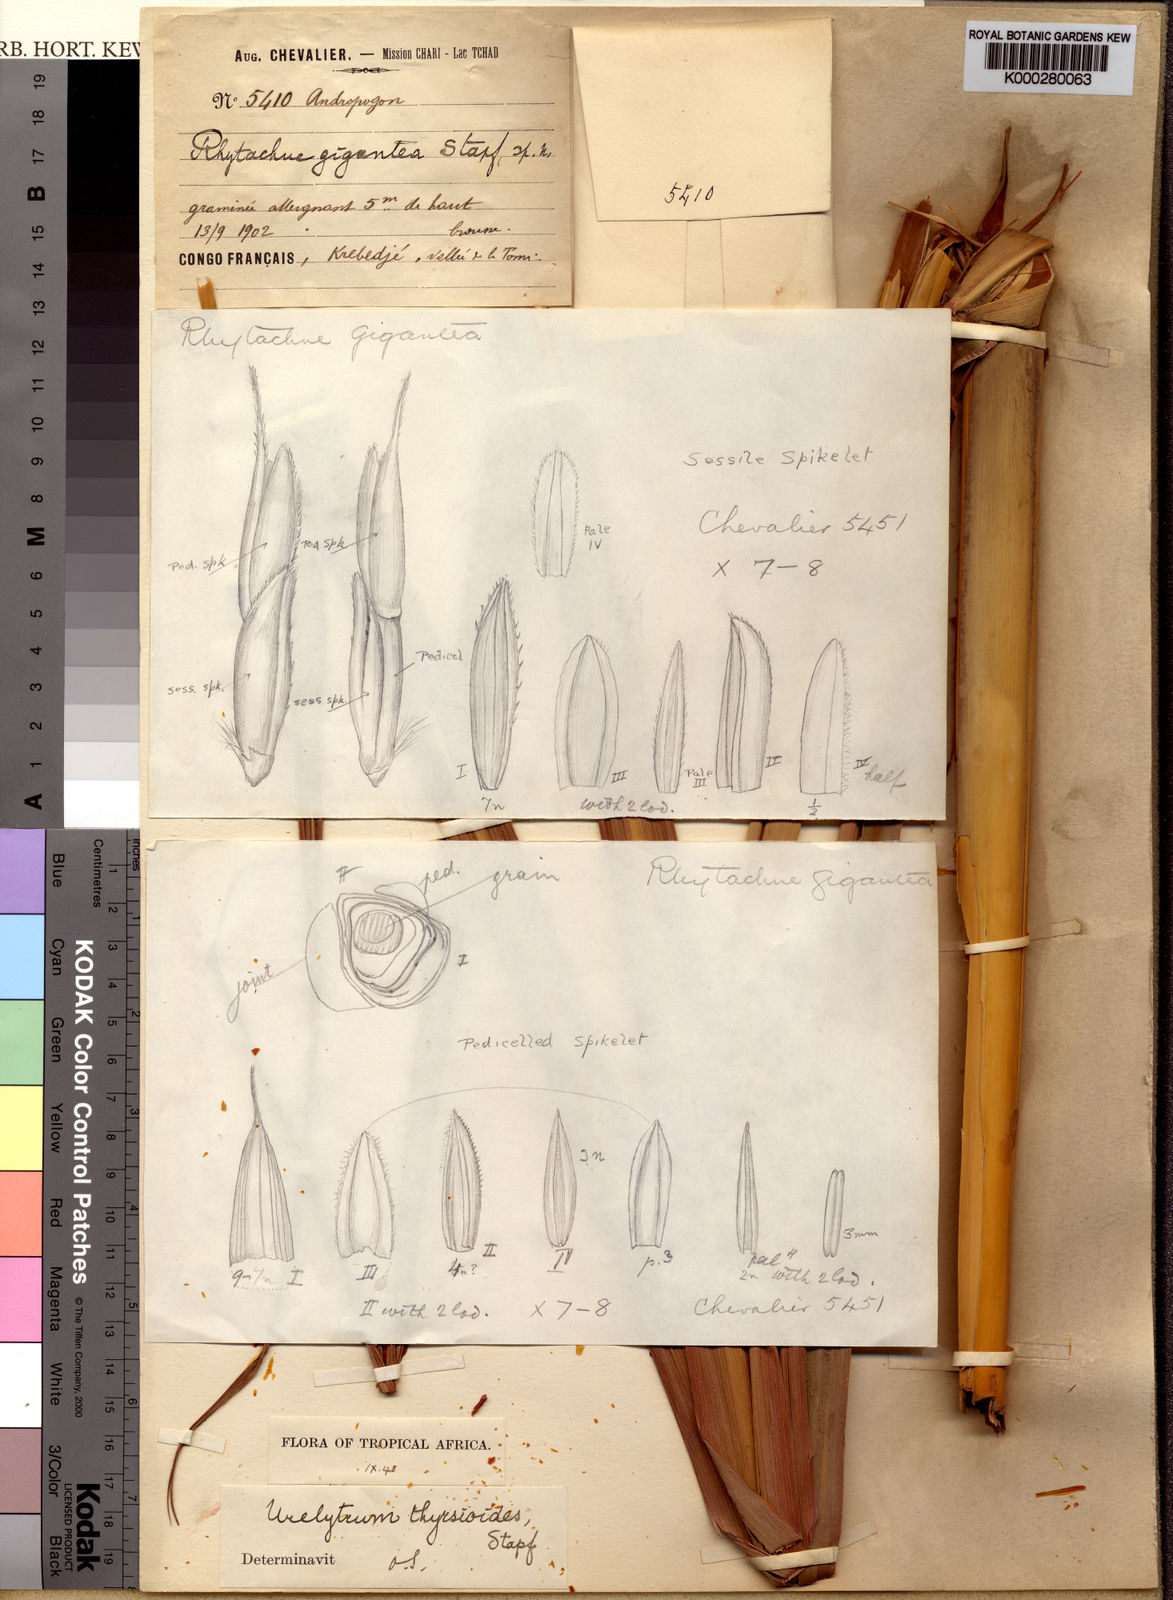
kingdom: Plantae
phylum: Tracheophyta
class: Liliopsida
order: Poales
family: Poaceae
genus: Urelytrum
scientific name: Urelytrum giganteum
